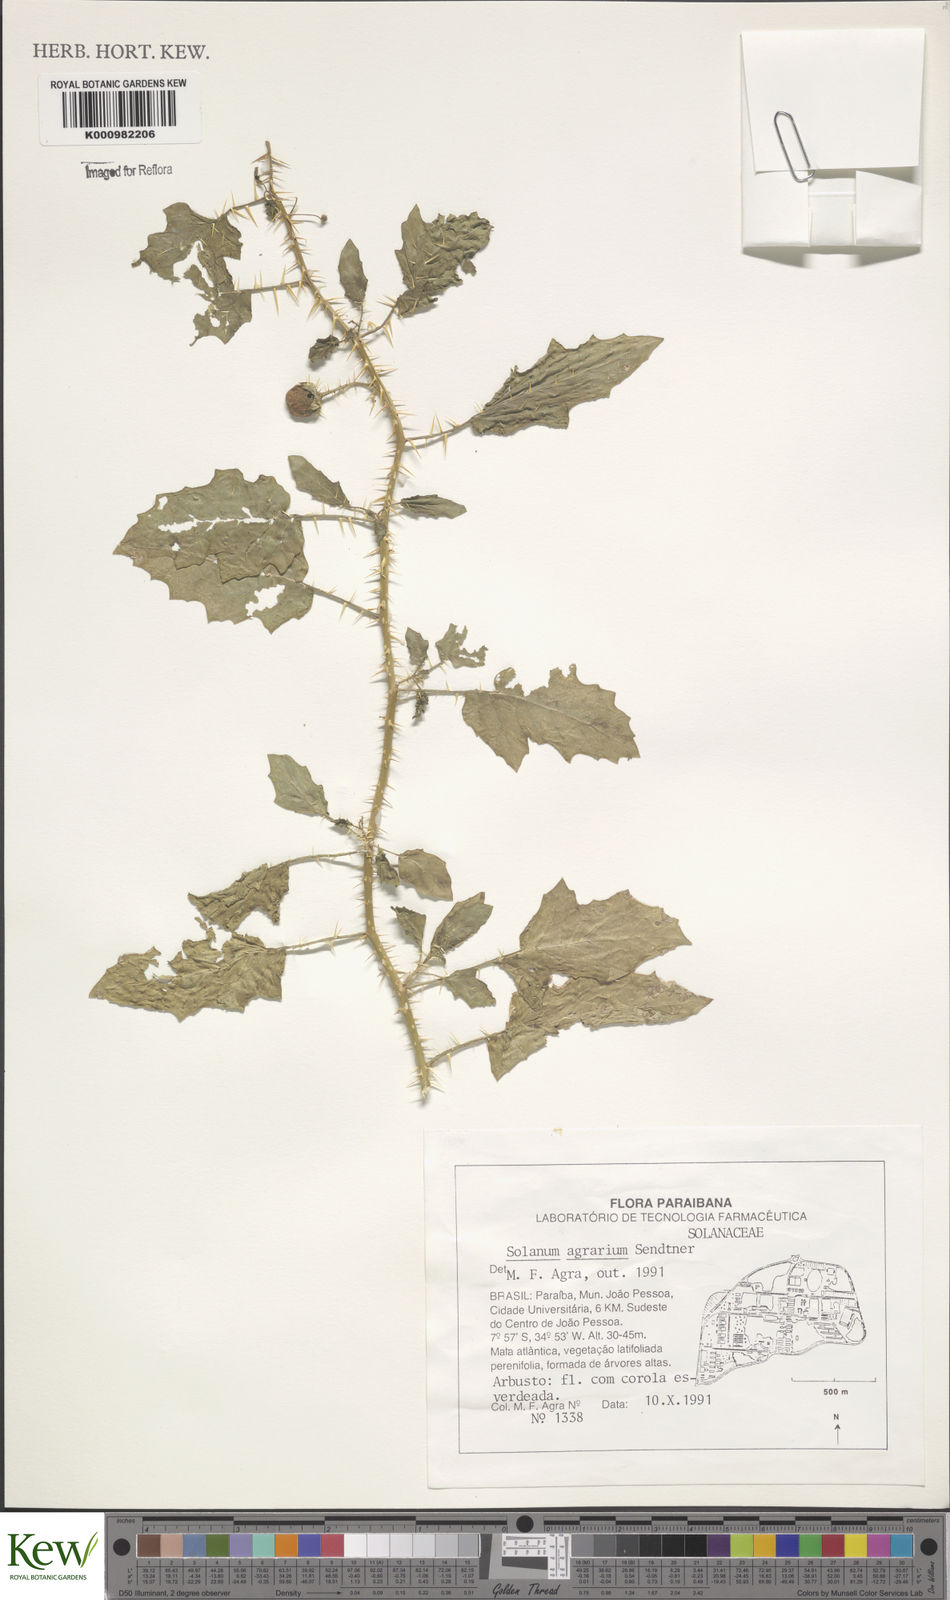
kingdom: Plantae
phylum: Tracheophyta
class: Magnoliopsida
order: Solanales
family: Solanaceae
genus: Solanum
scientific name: Solanum agrarium
